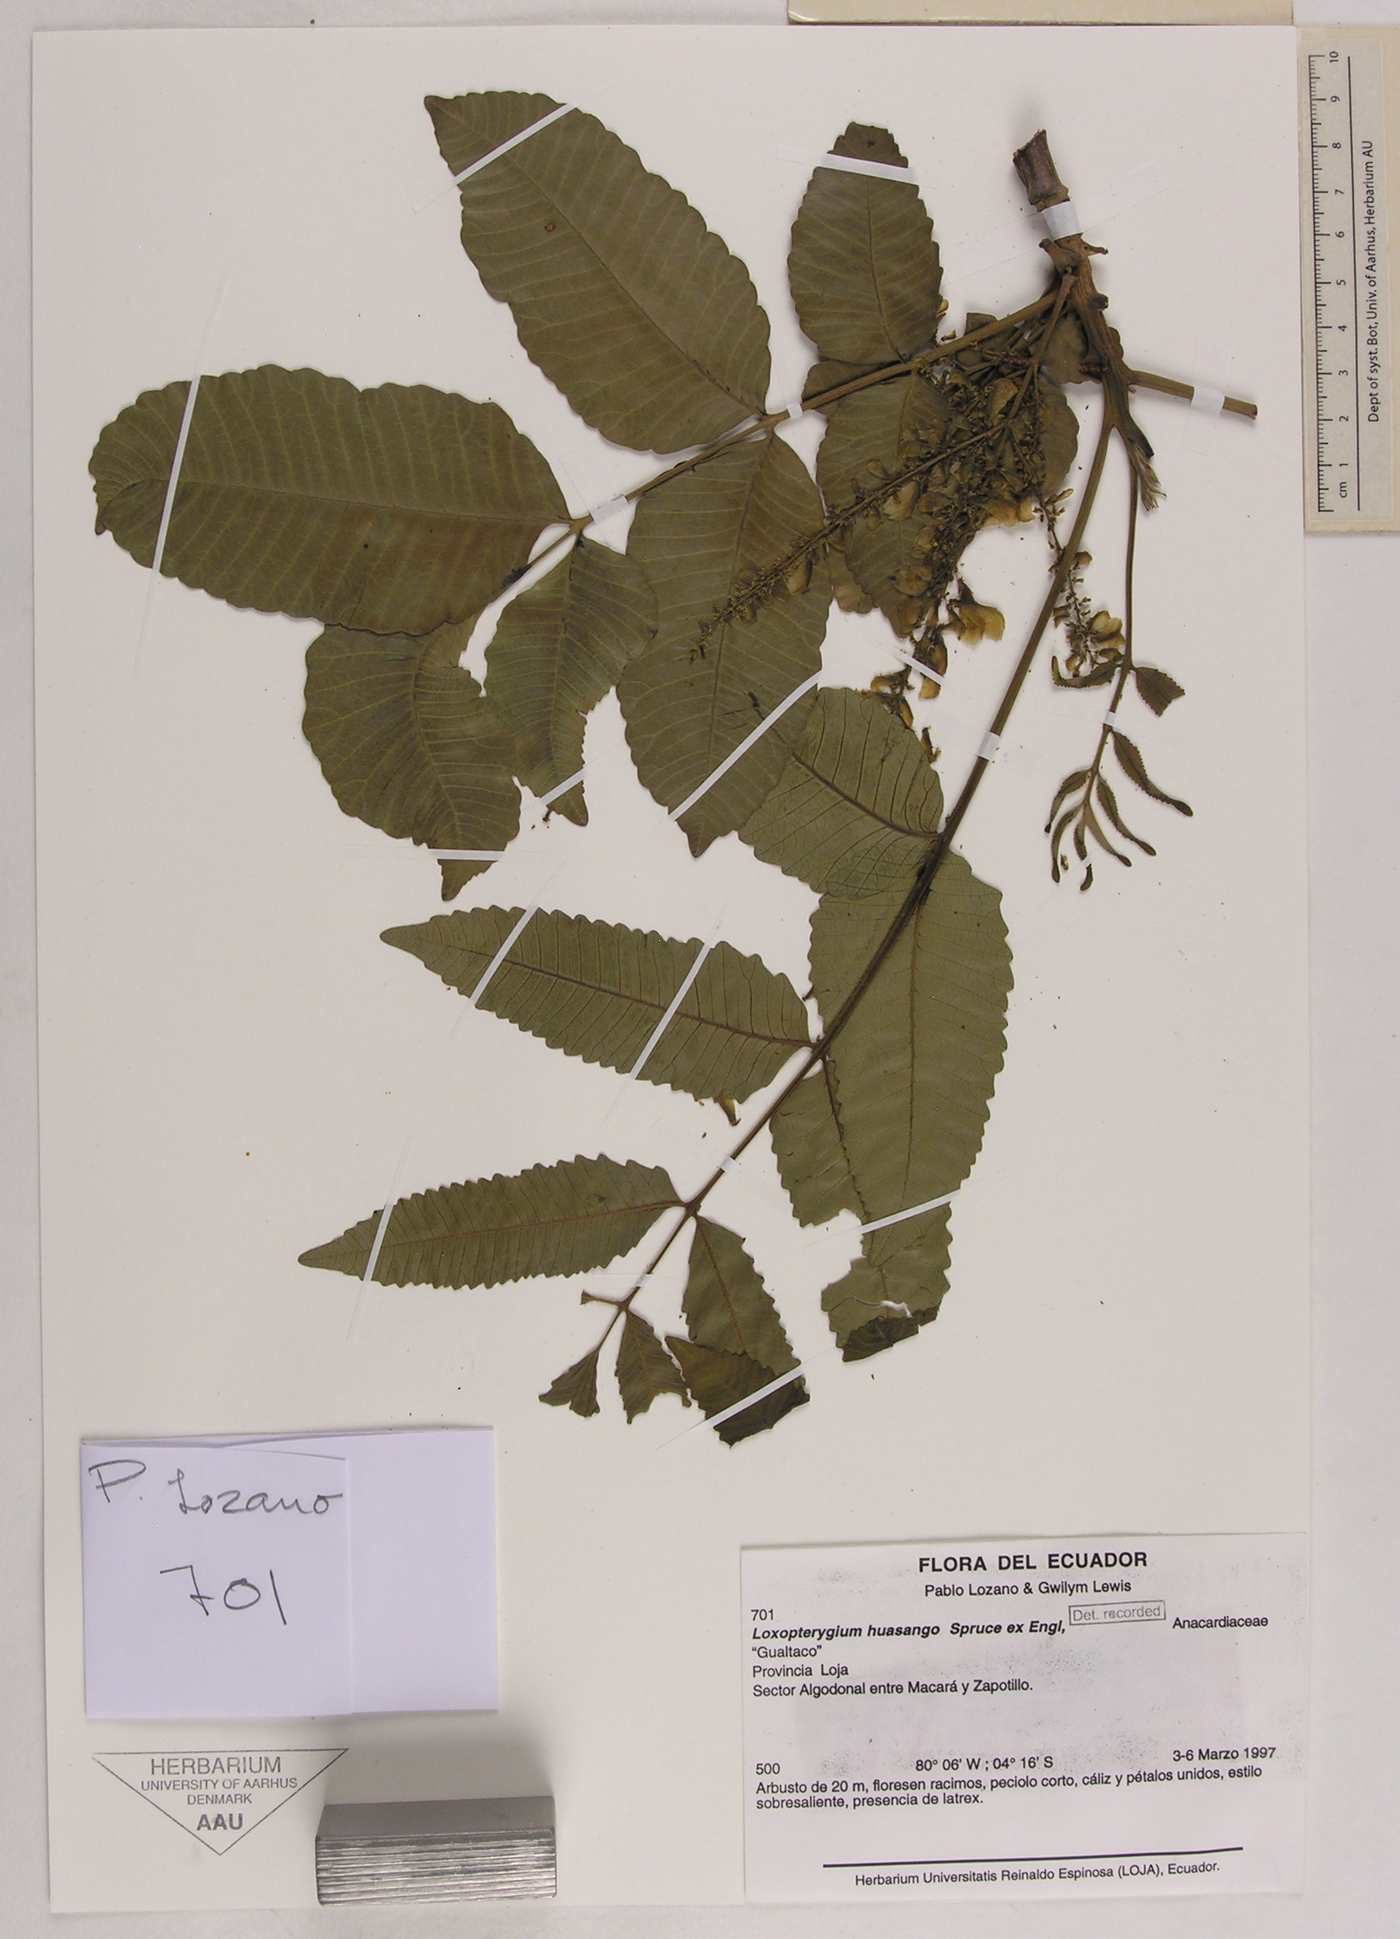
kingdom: Plantae
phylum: Tracheophyta
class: Magnoliopsida
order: Sapindales
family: Anacardiaceae
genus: Loxopterygium
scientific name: Loxopterygium huasango
